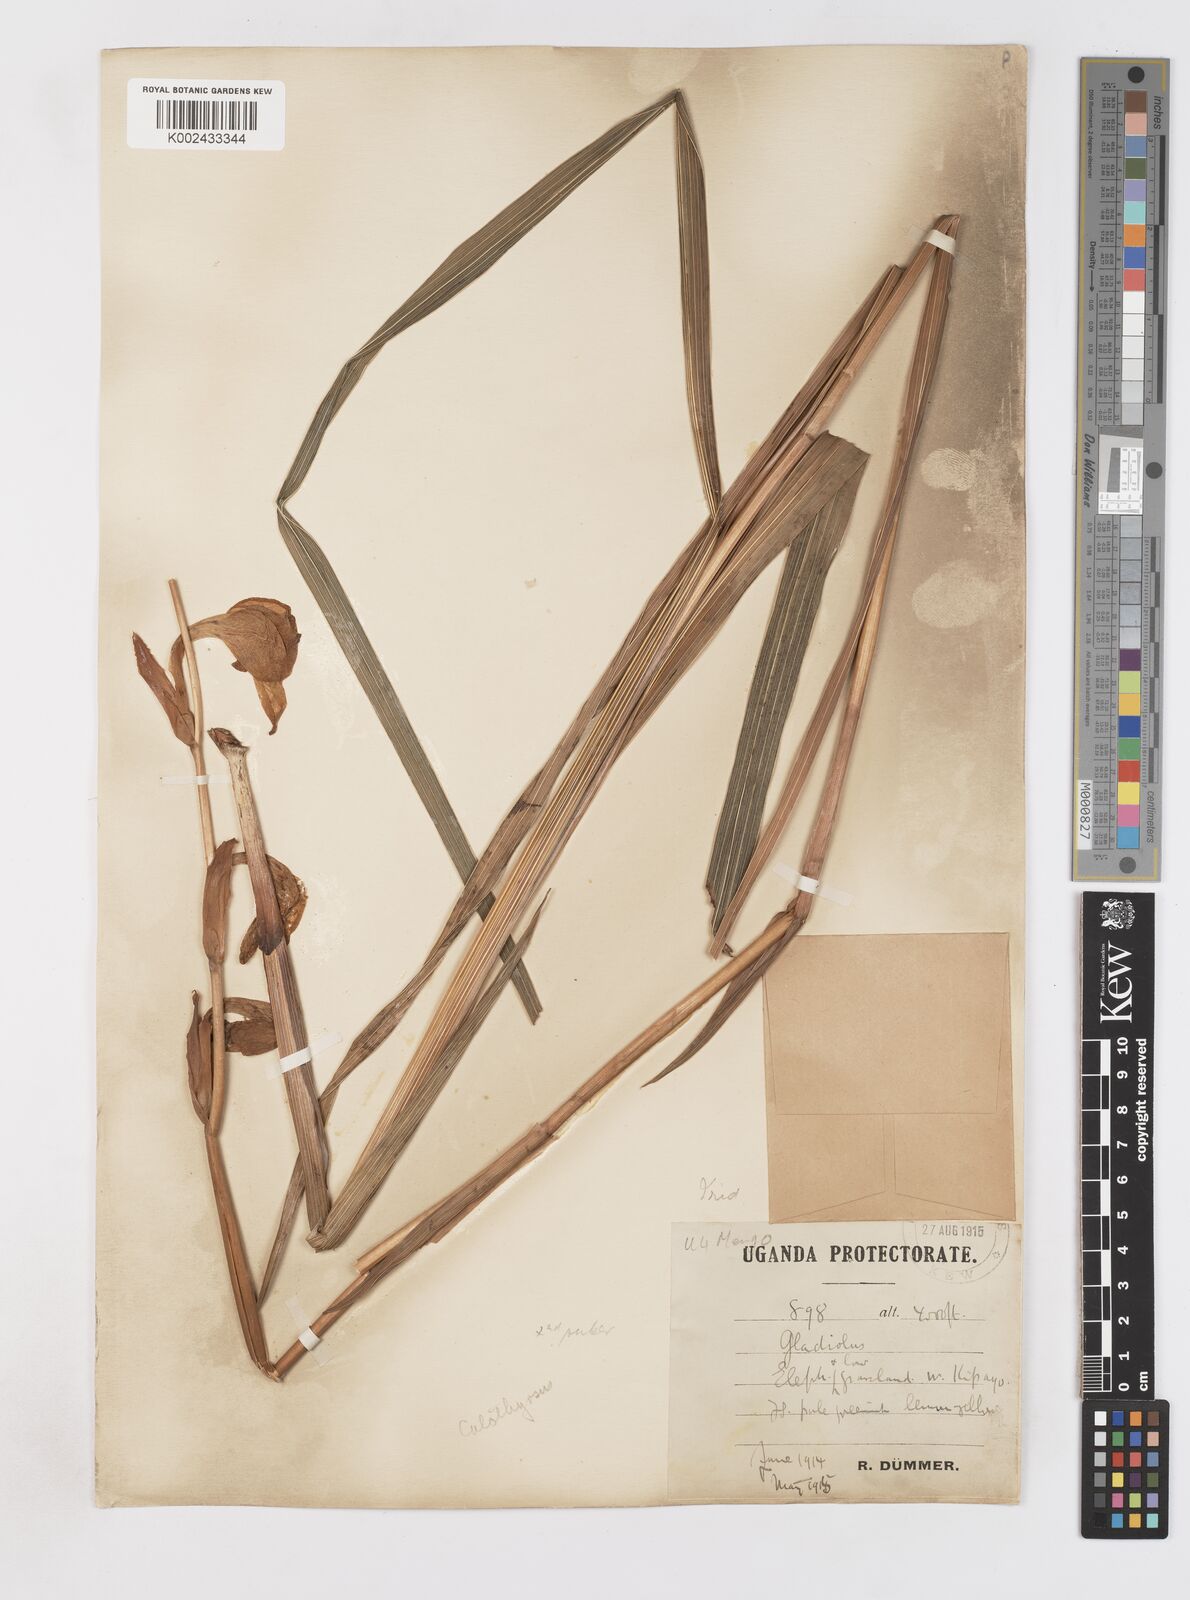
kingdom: Plantae
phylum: Tracheophyta
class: Liliopsida
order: Asparagales
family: Iridaceae
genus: Gladiolus
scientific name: Gladiolus dalenii
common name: Cornflag
